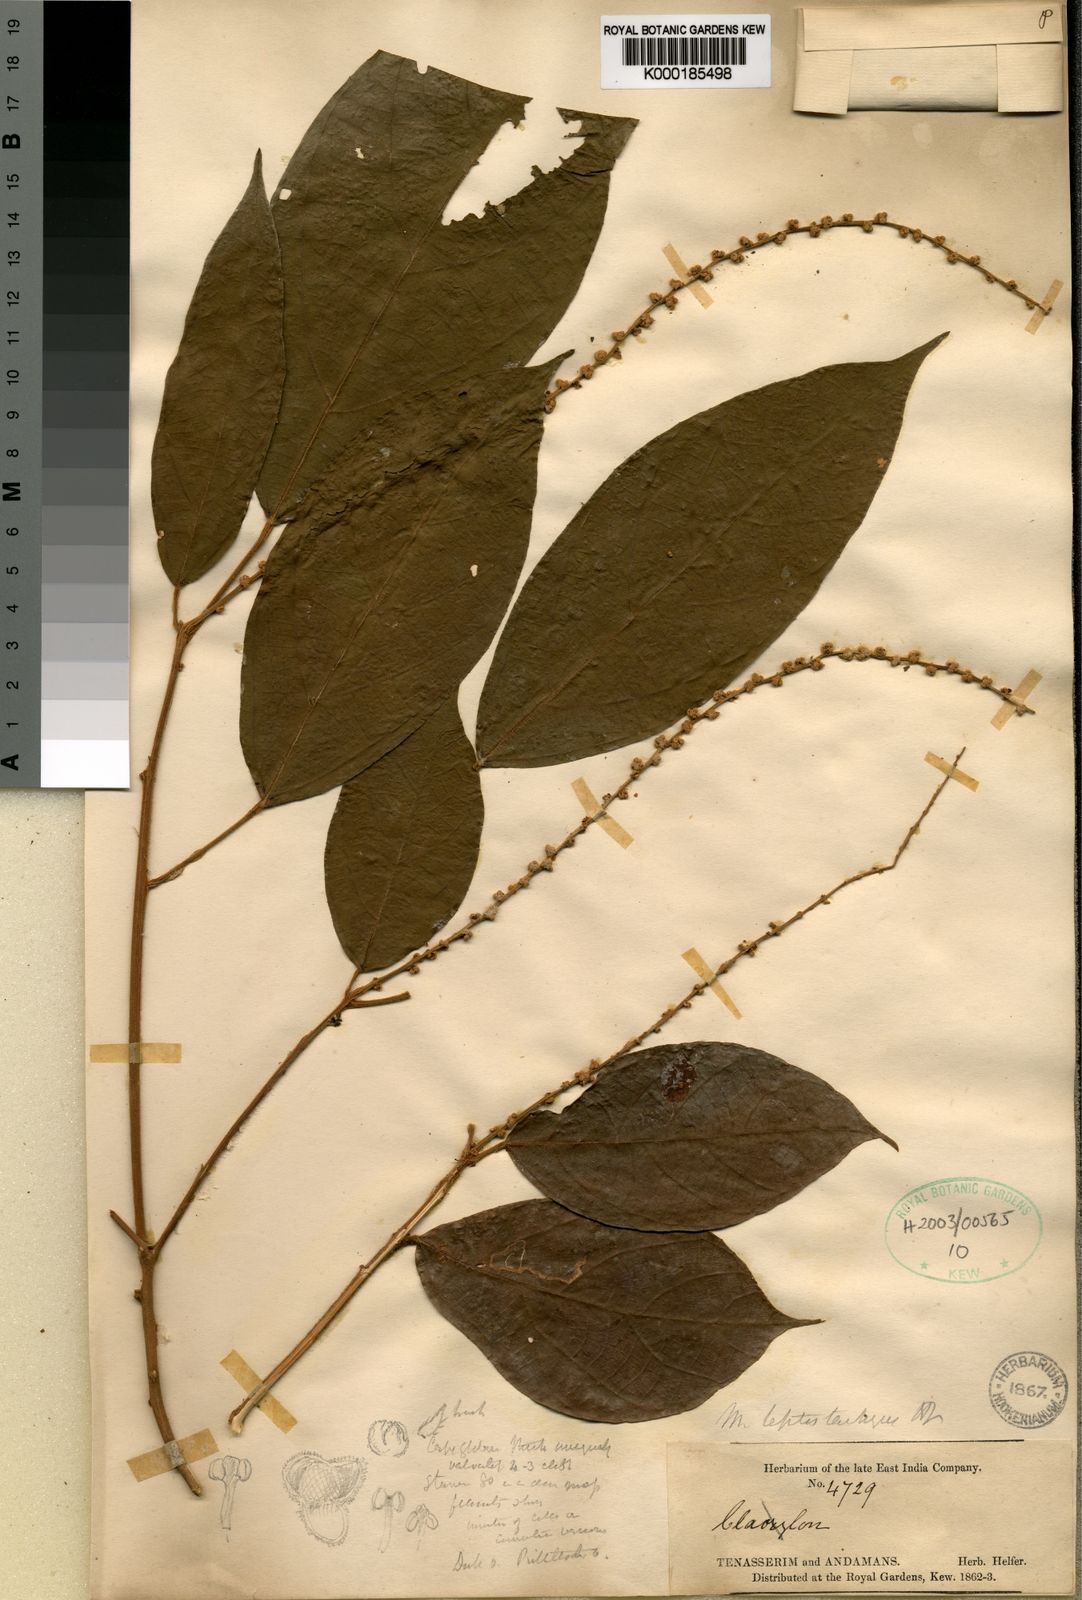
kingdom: Plantae
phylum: Tracheophyta
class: Magnoliopsida
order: Malpighiales
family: Euphorbiaceae
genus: Mallotus
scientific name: Mallotus leptostachyus
